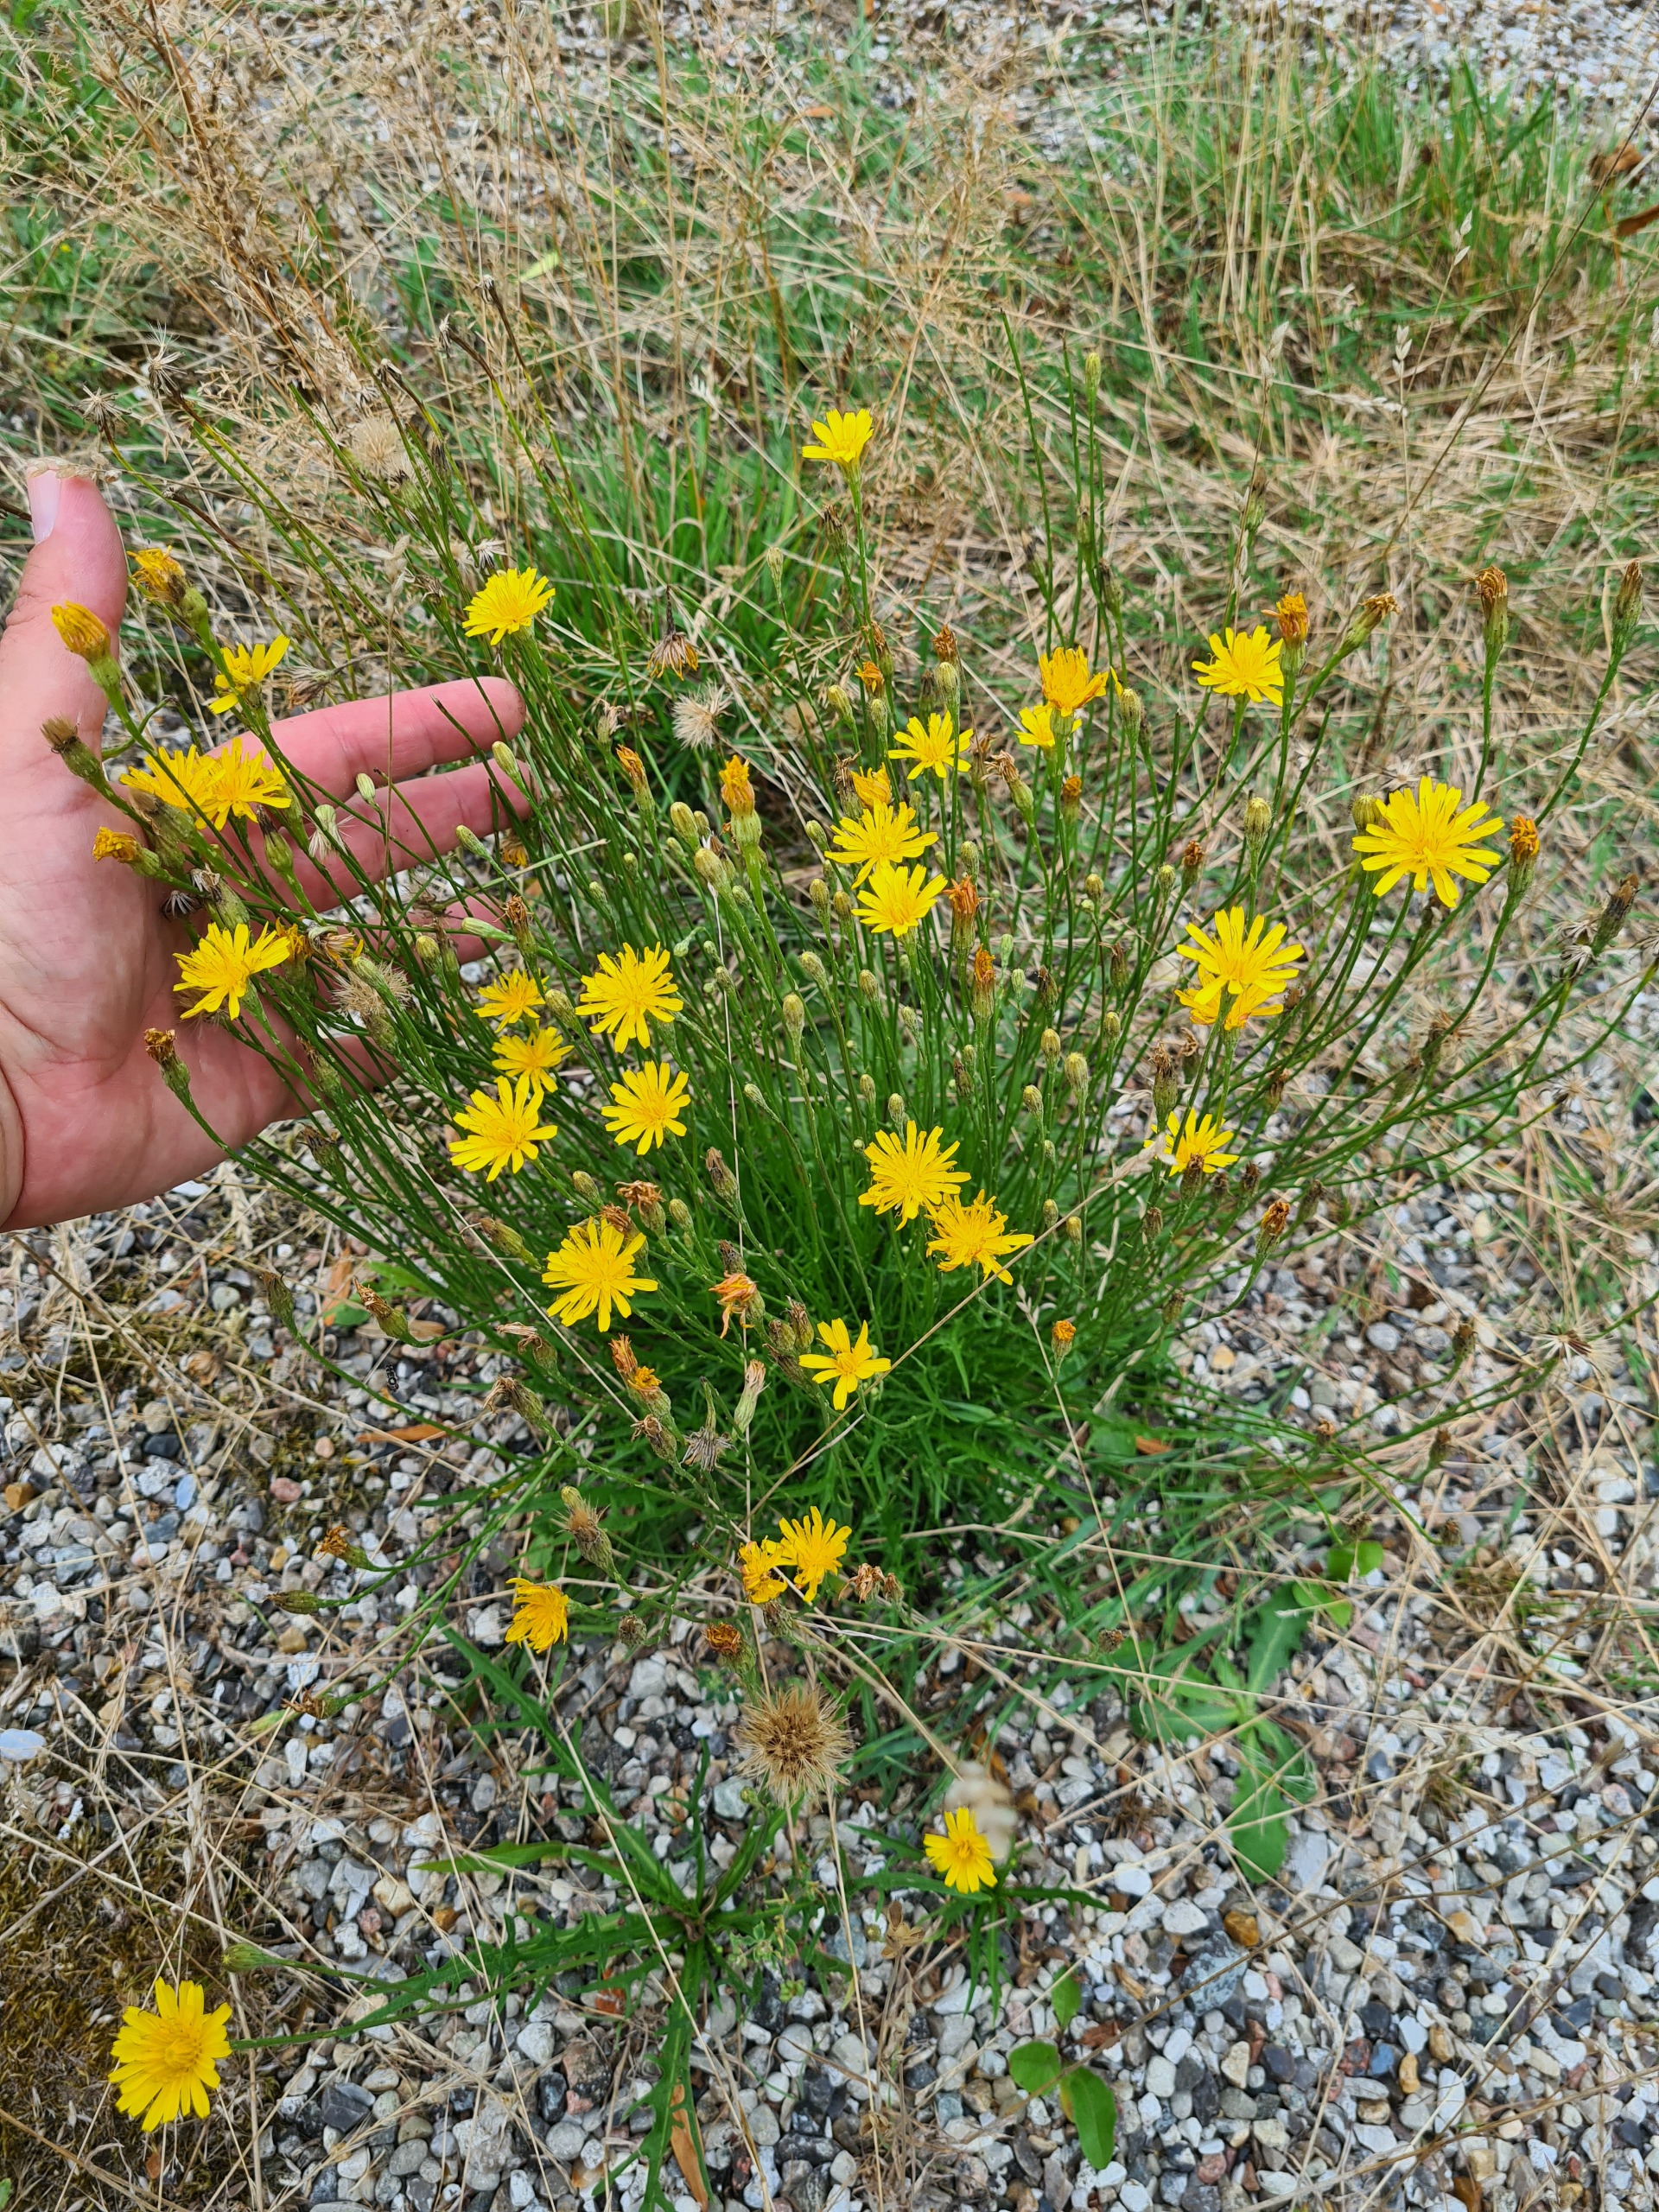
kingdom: Plantae
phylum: Tracheophyta
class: Magnoliopsida
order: Asterales
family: Asteraceae
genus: Scorzoneroides
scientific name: Scorzoneroides autumnalis
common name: Høst-borst
